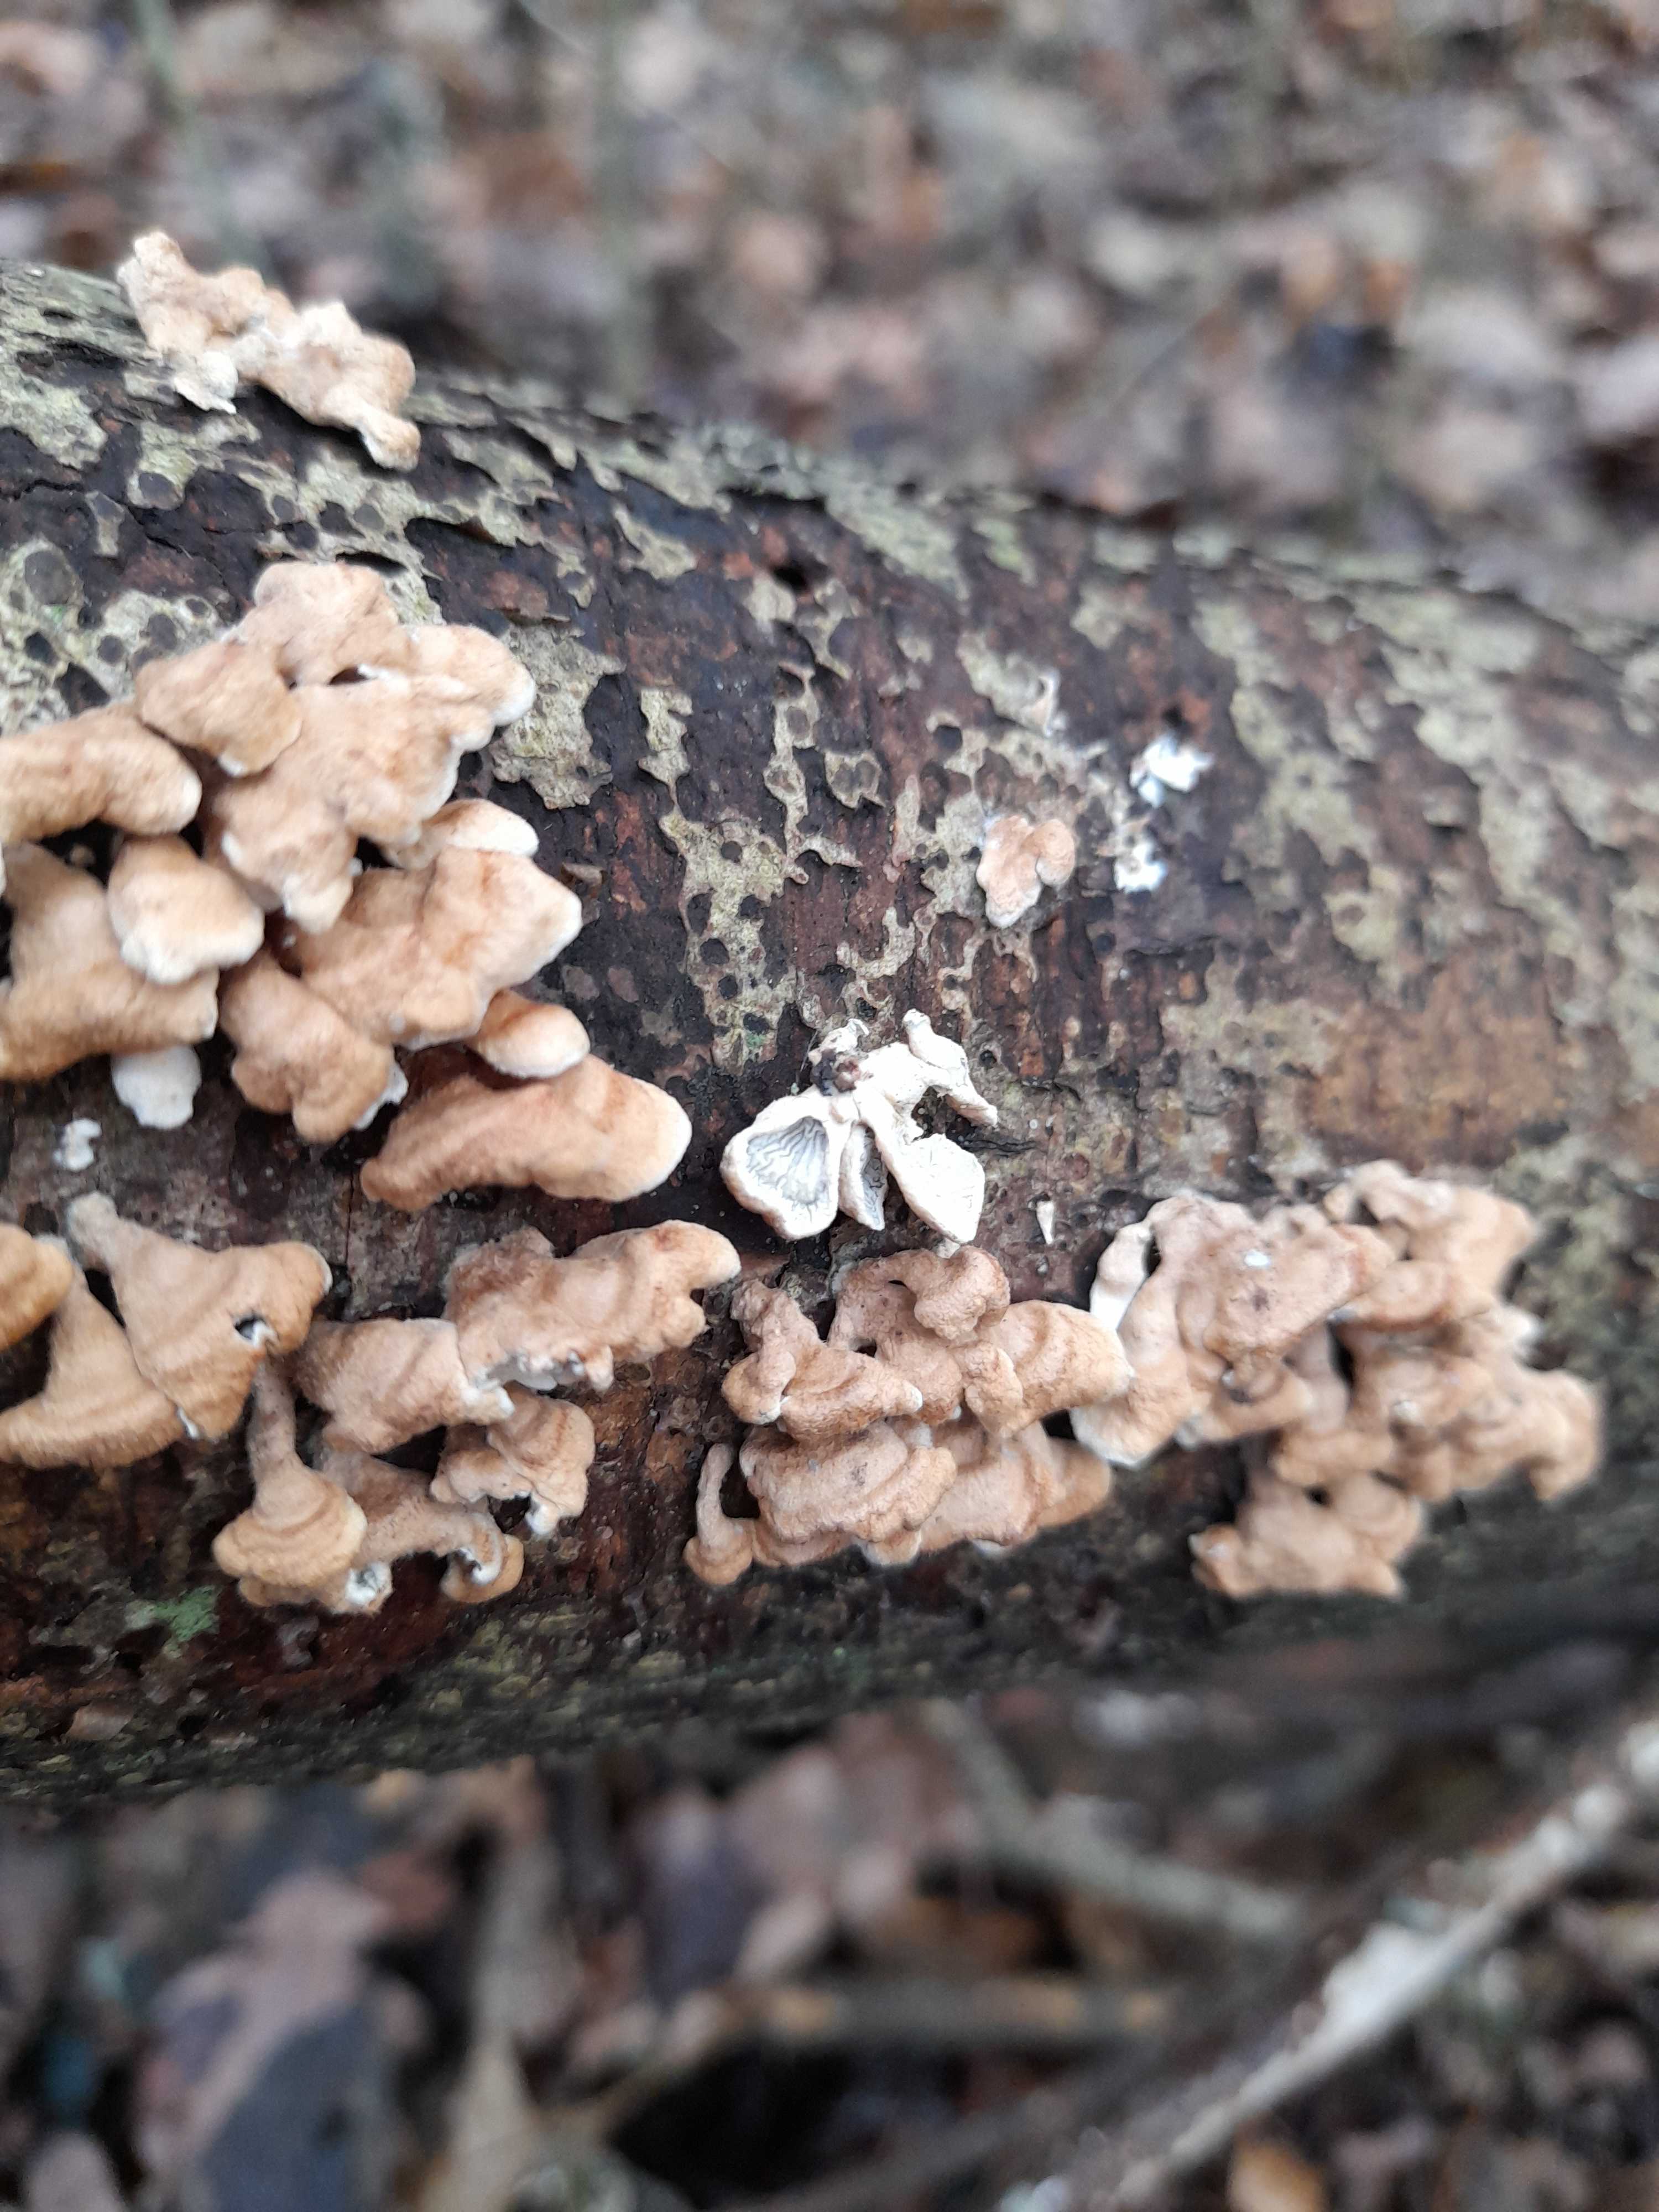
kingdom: Fungi
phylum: Basidiomycota
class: Agaricomycetes
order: Amylocorticiales
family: Amylocorticiaceae
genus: Plicaturopsis
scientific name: Plicaturopsis crispa
